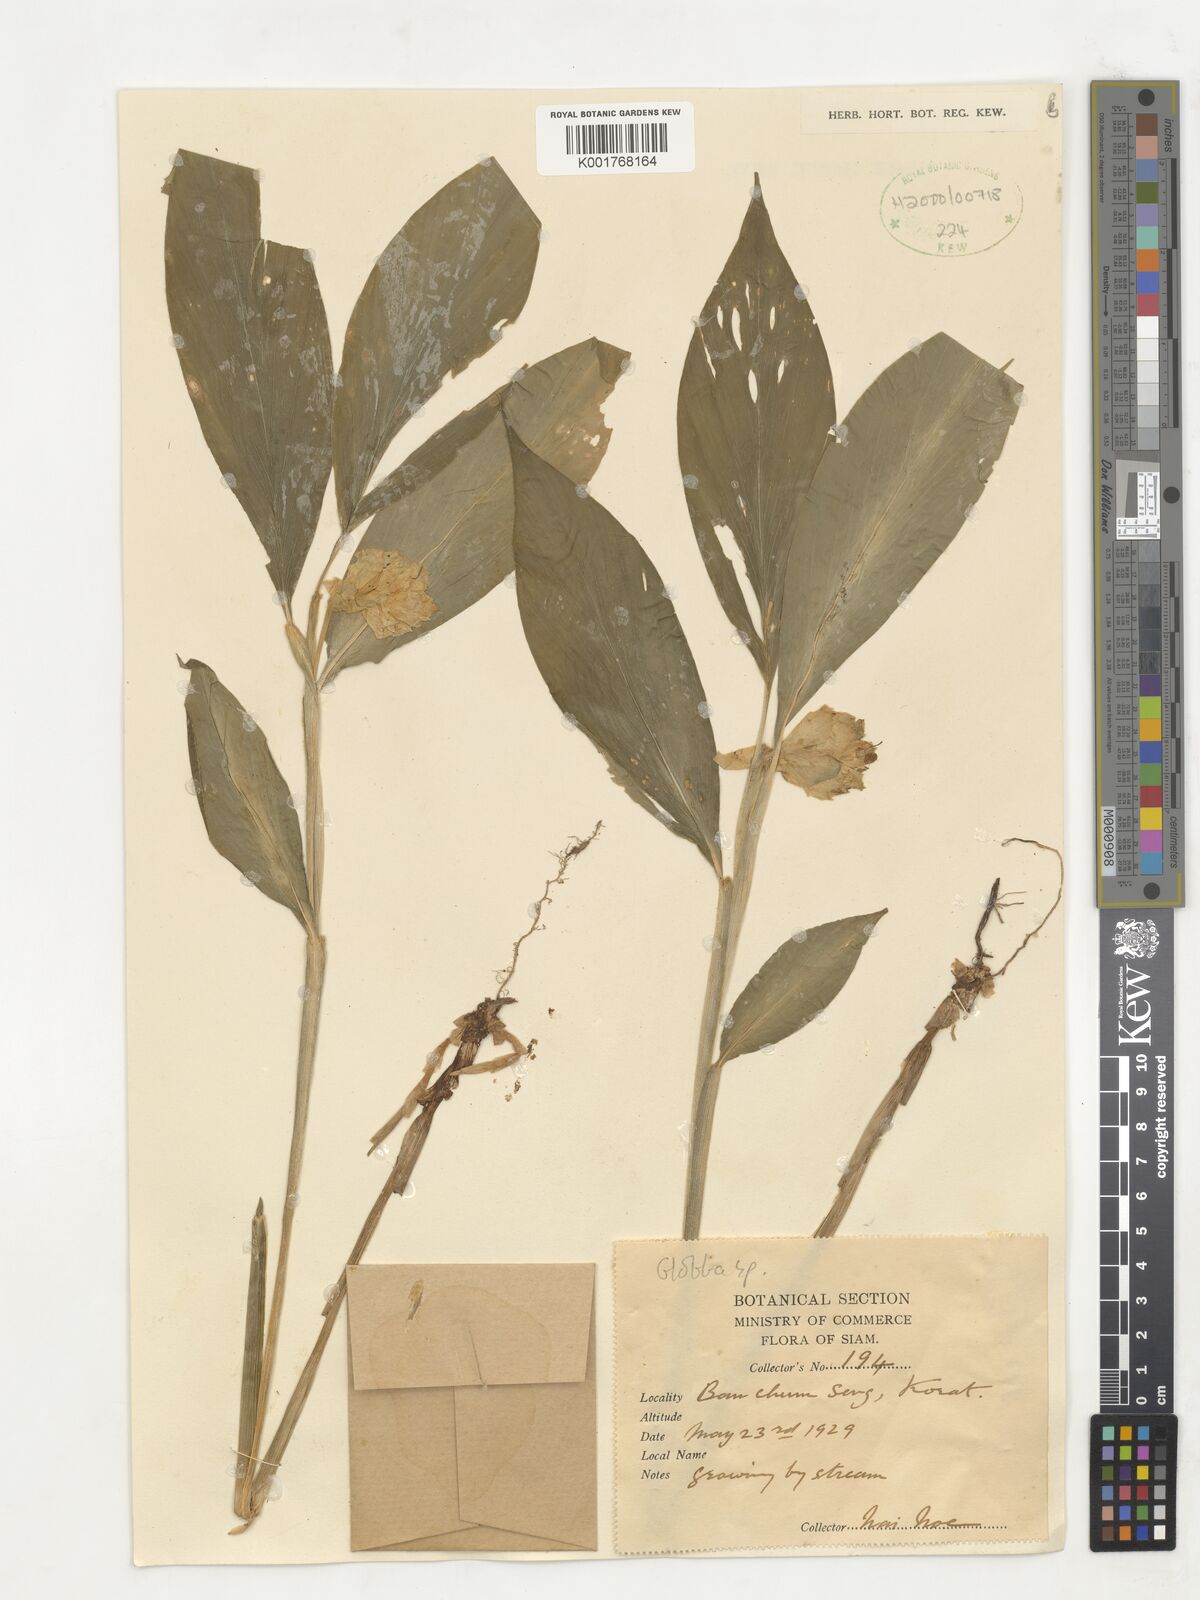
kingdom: Plantae
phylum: Tracheophyta
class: Liliopsida
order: Zingiberales
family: Zingiberaceae
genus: Globba
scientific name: Globba
